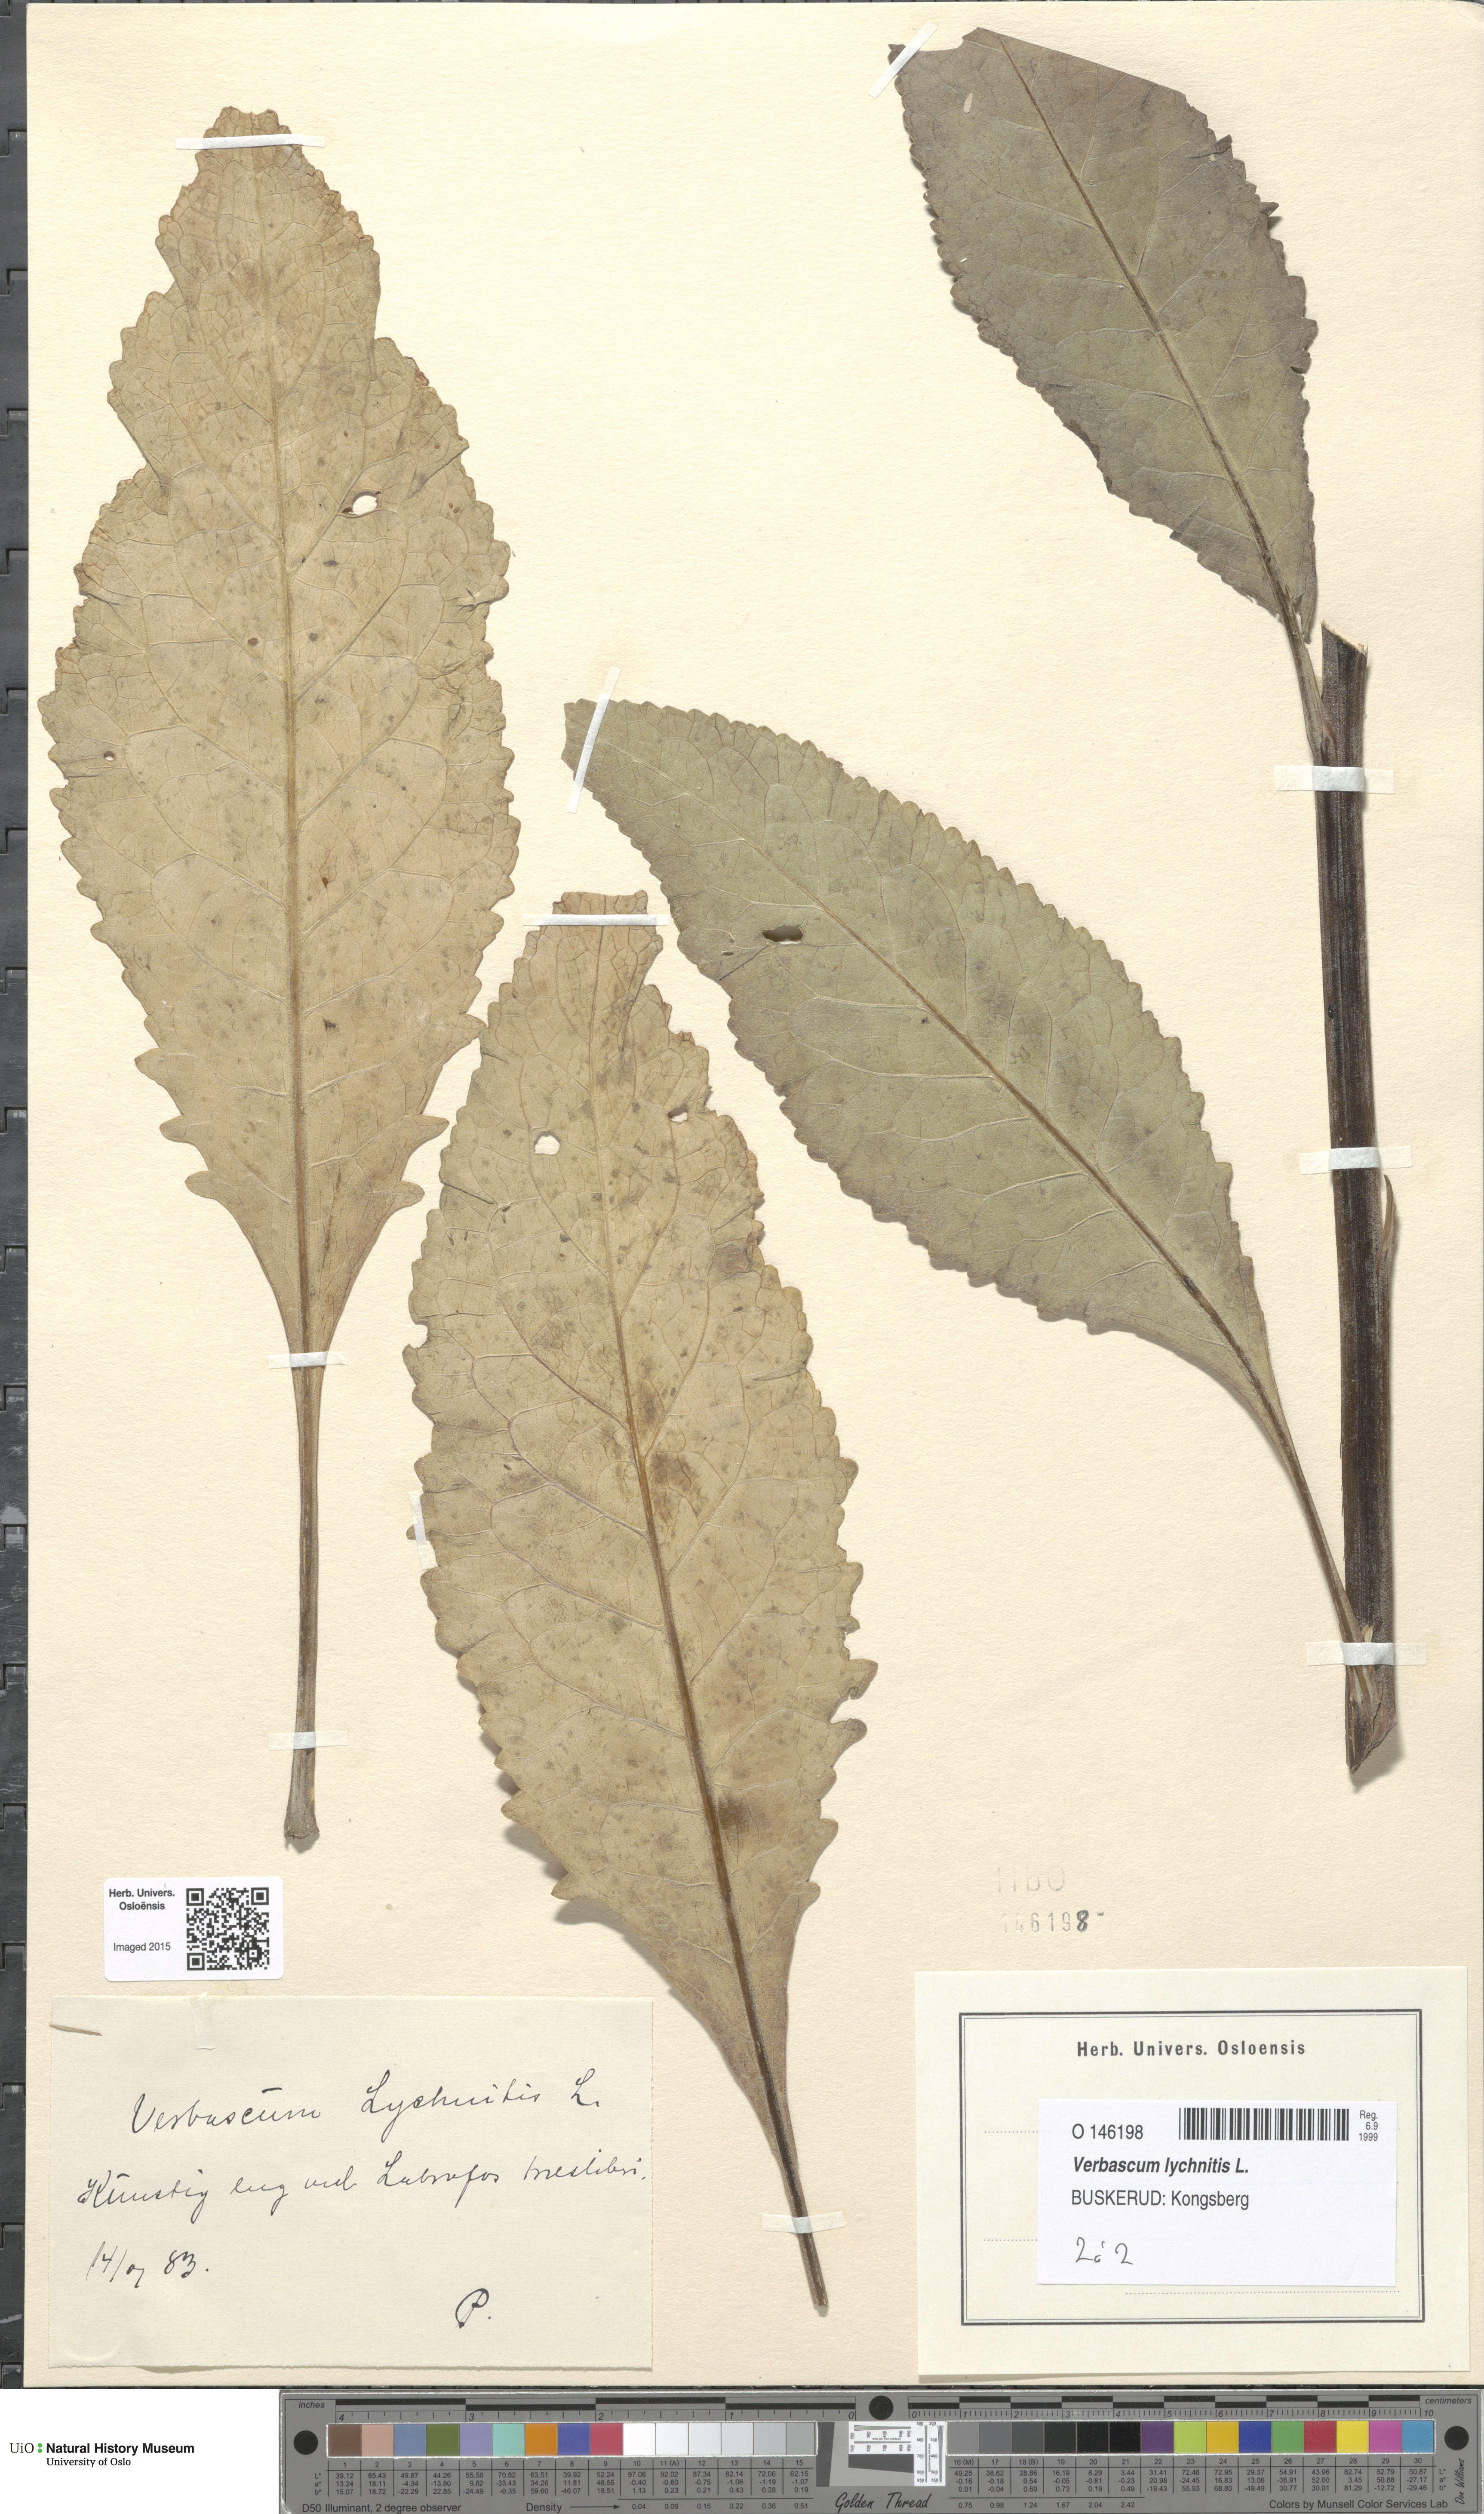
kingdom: Plantae
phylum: Tracheophyta
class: Magnoliopsida
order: Lamiales
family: Scrophulariaceae
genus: Verbascum
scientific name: Verbascum lychnitis
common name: White mullein
